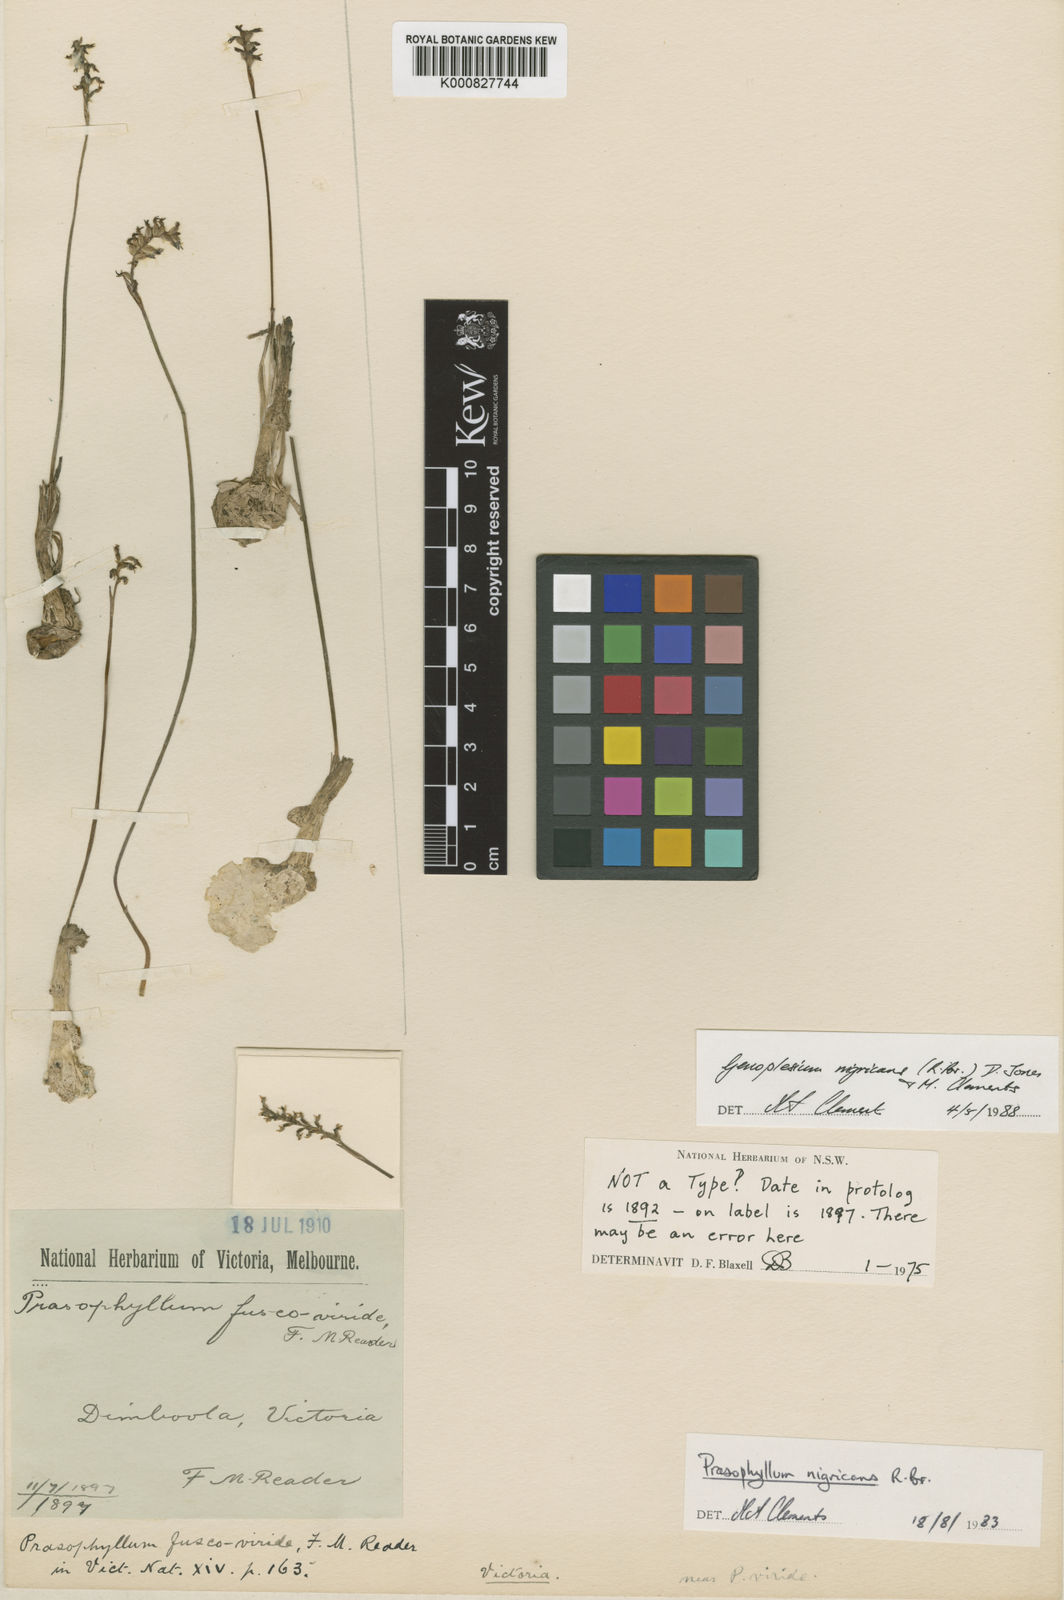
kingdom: Plantae
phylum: Tracheophyta
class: Liliopsida
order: Asparagales
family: Orchidaceae
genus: Genoplesium
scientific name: Genoplesium nigricans
